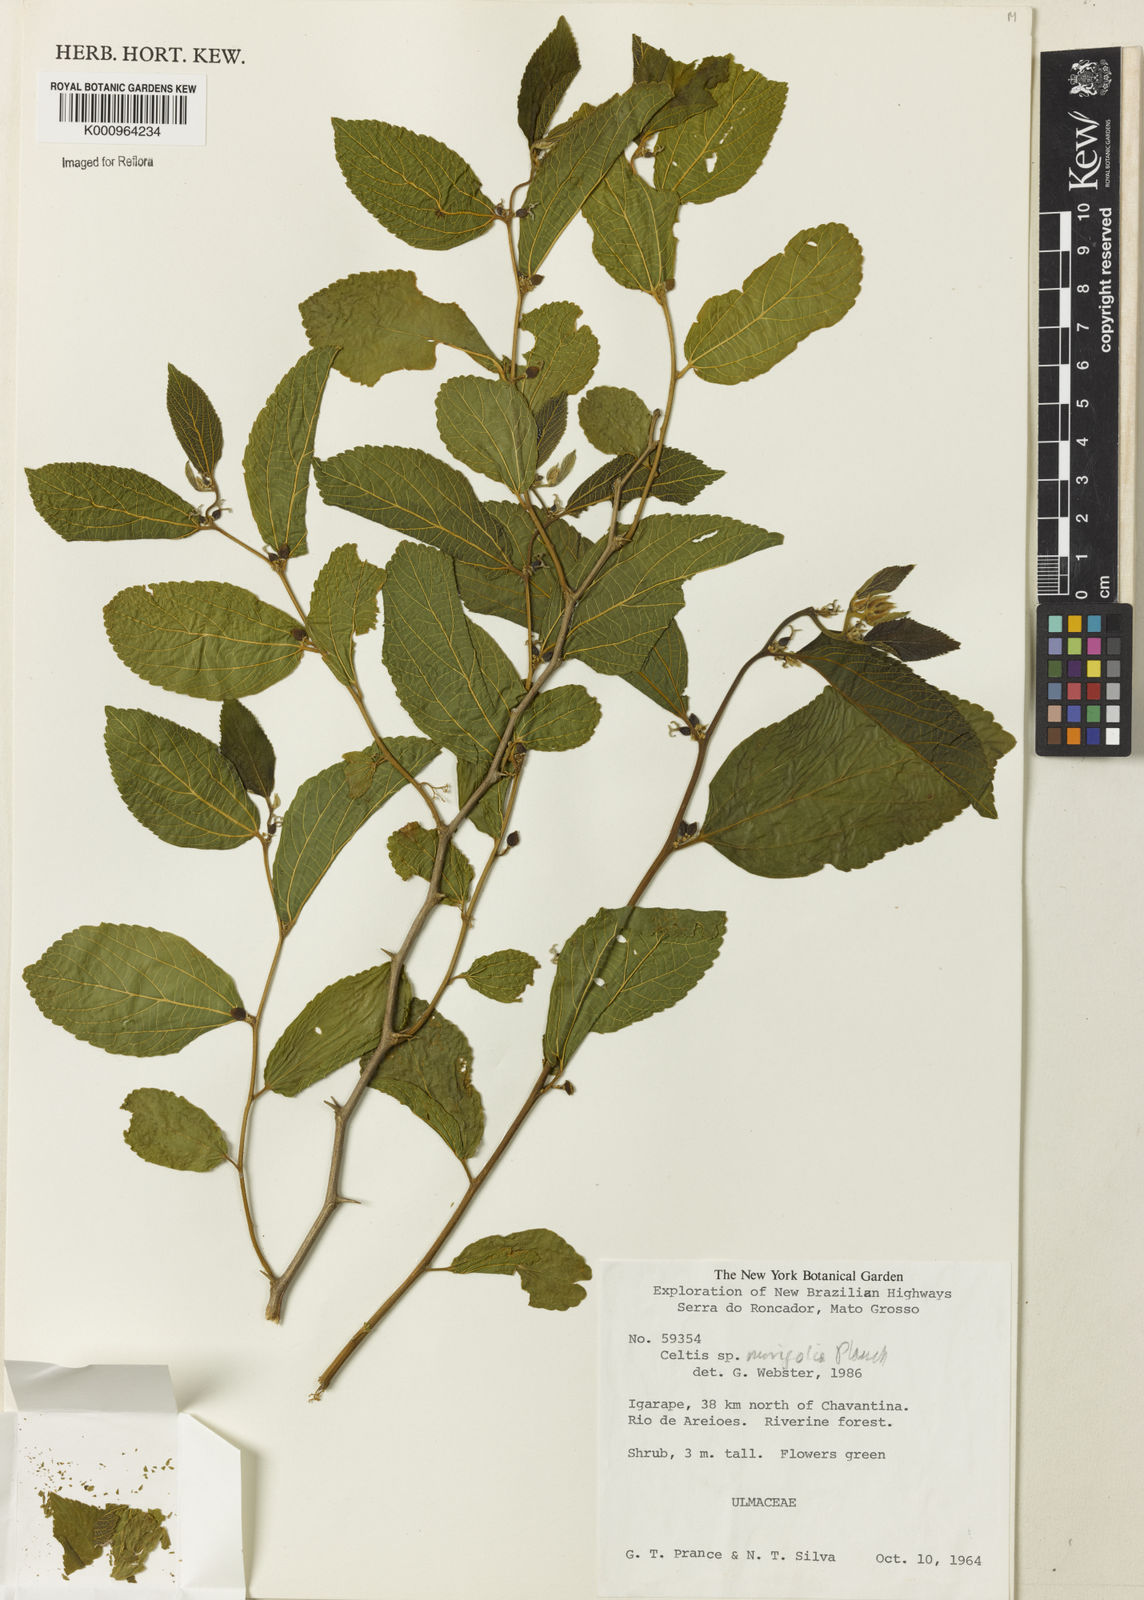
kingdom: Plantae
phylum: Tracheophyta
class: Magnoliopsida
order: Rosales
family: Cannabaceae
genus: Celtis
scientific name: Celtis iguanaea
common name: Iguana hackberry
